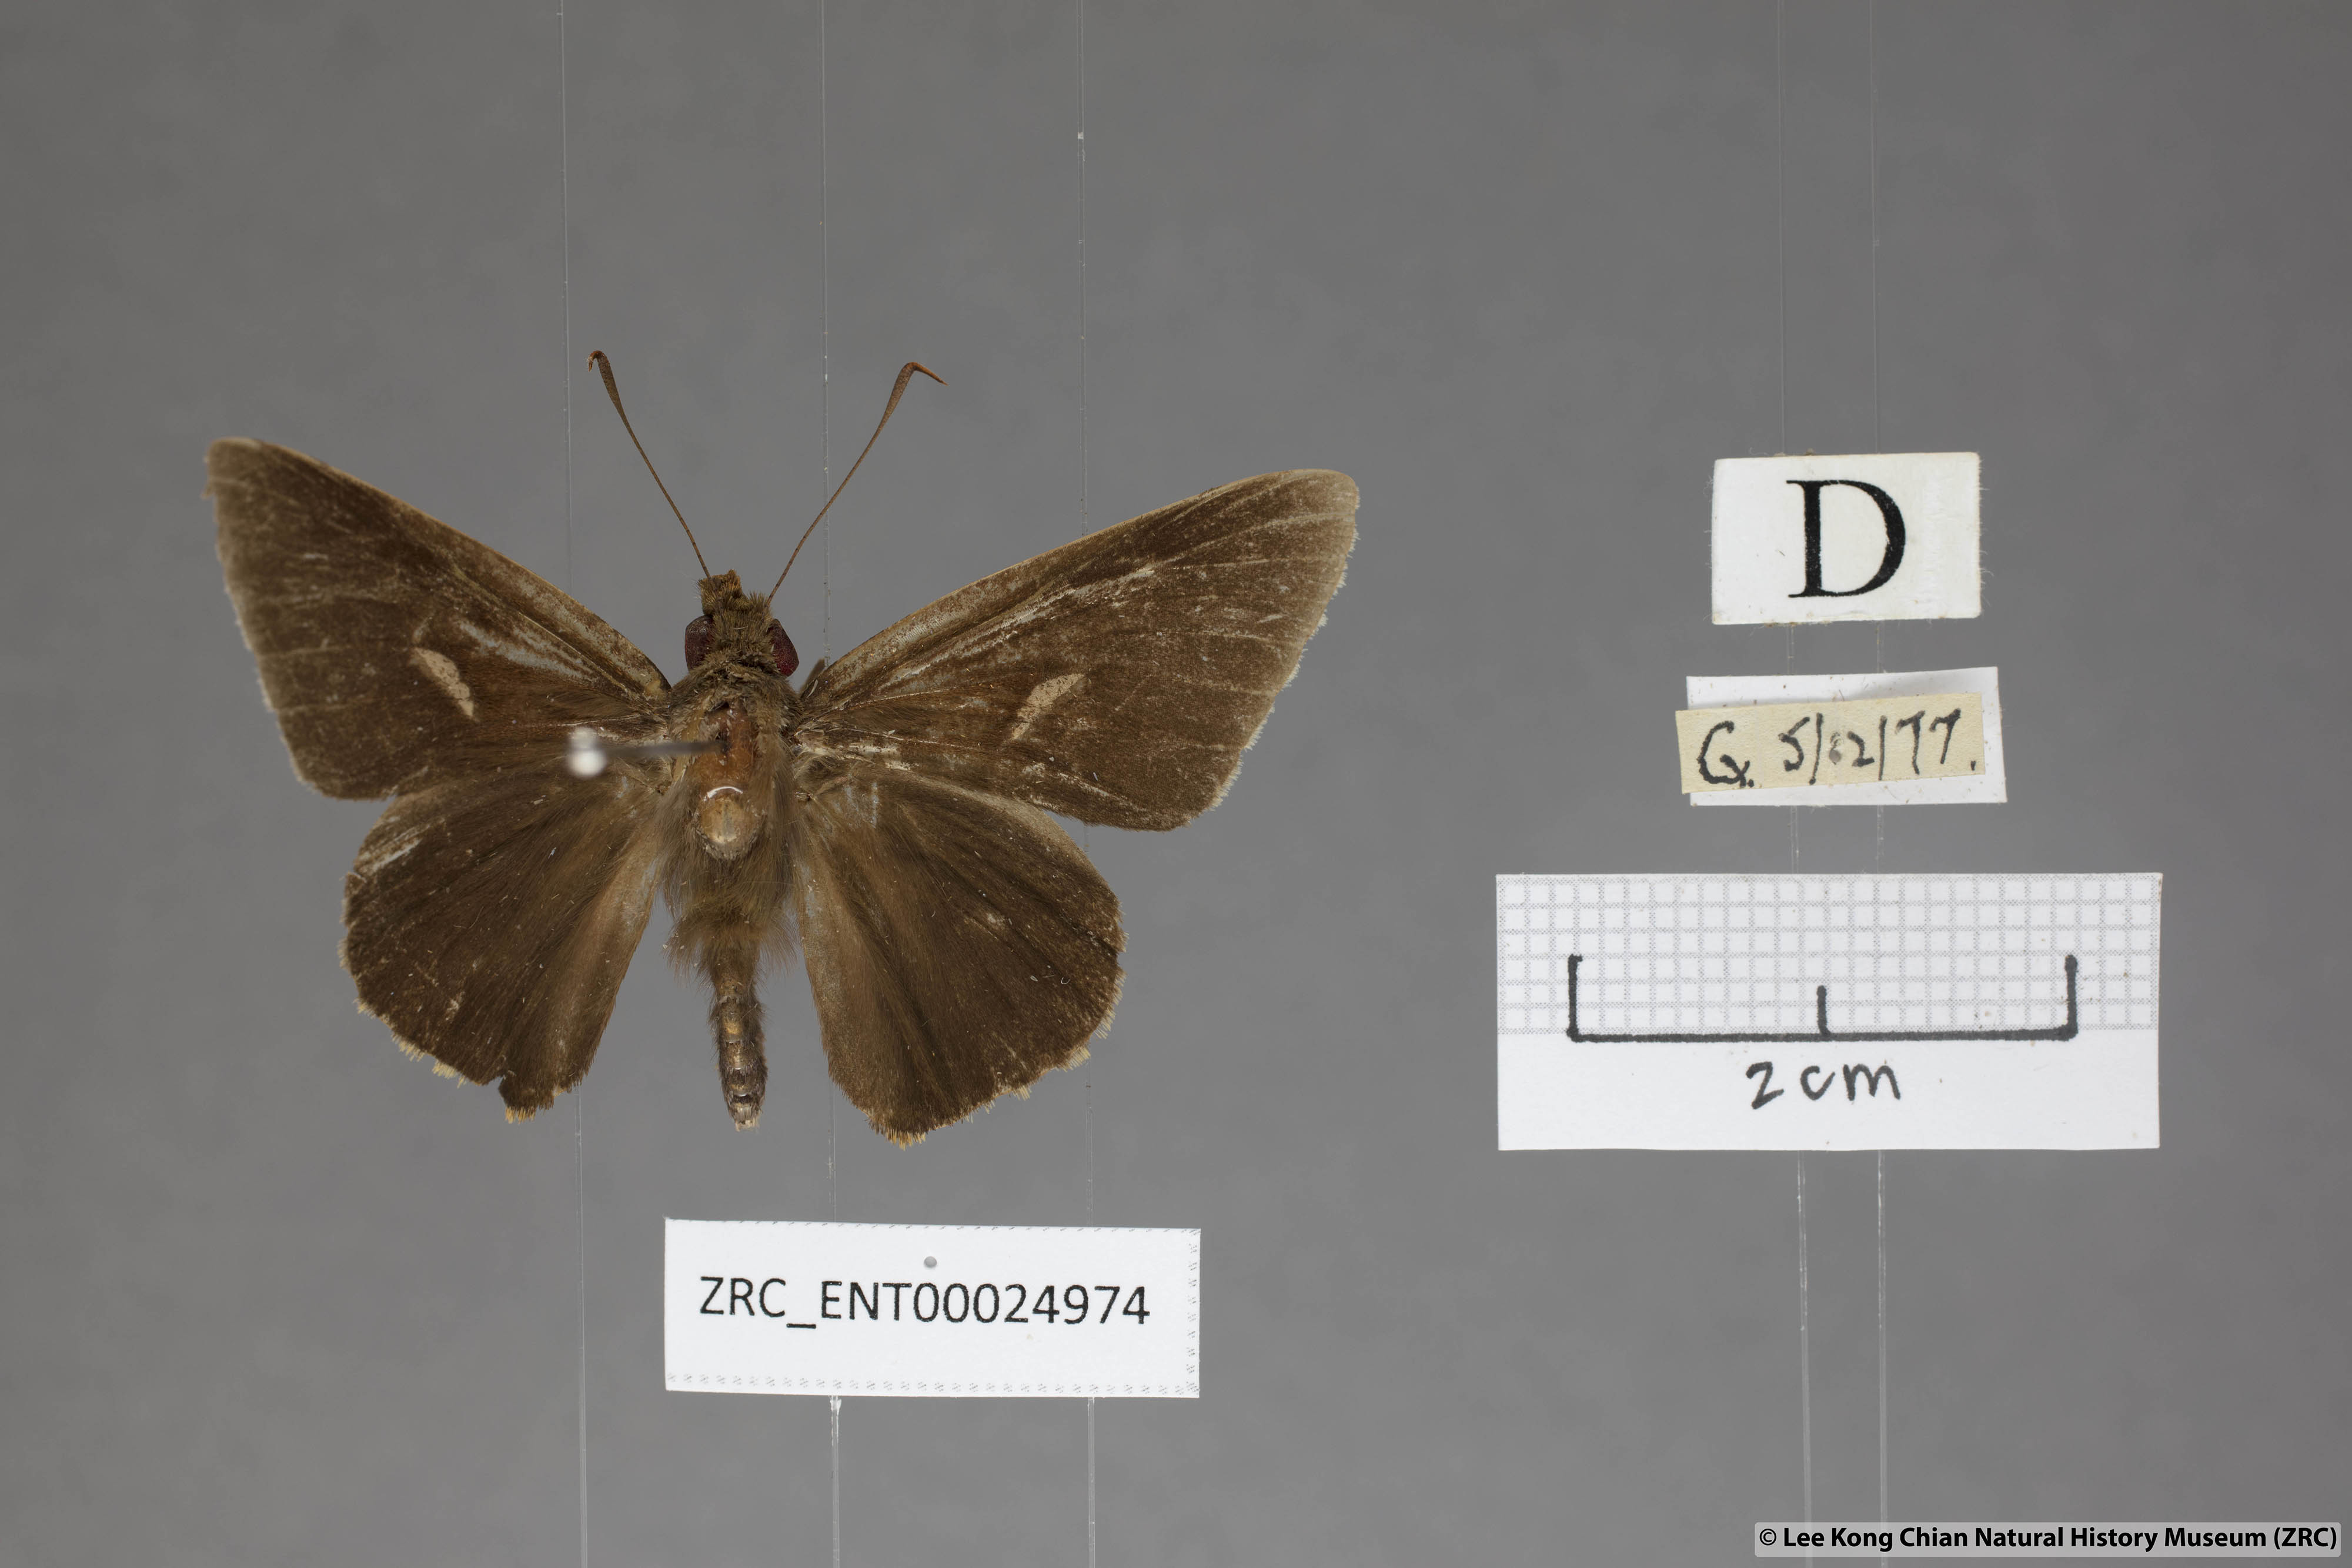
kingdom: Animalia
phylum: Arthropoda
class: Insecta
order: Lepidoptera
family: Hesperiidae
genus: Matapa
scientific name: Matapa druna
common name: Grey-brand redeye
